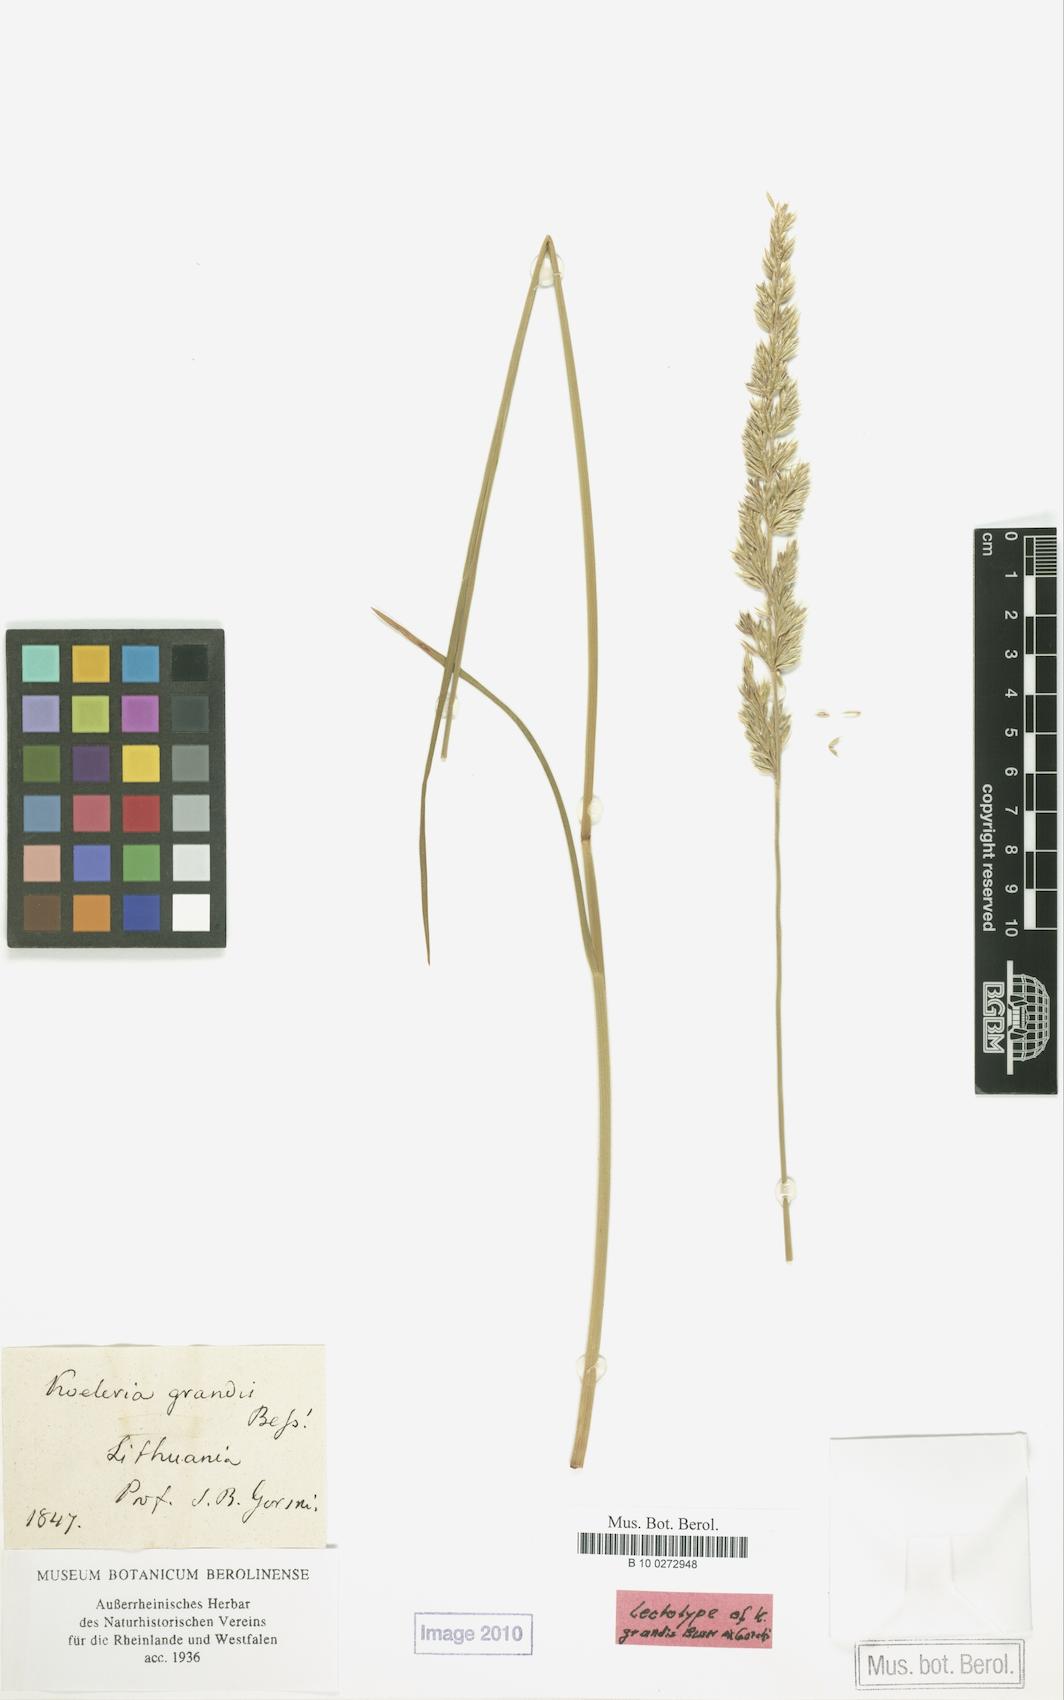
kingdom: Plantae
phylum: Tracheophyta
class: Liliopsida
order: Poales
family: Poaceae
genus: Koeleria
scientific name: Koeleria pyramidata
